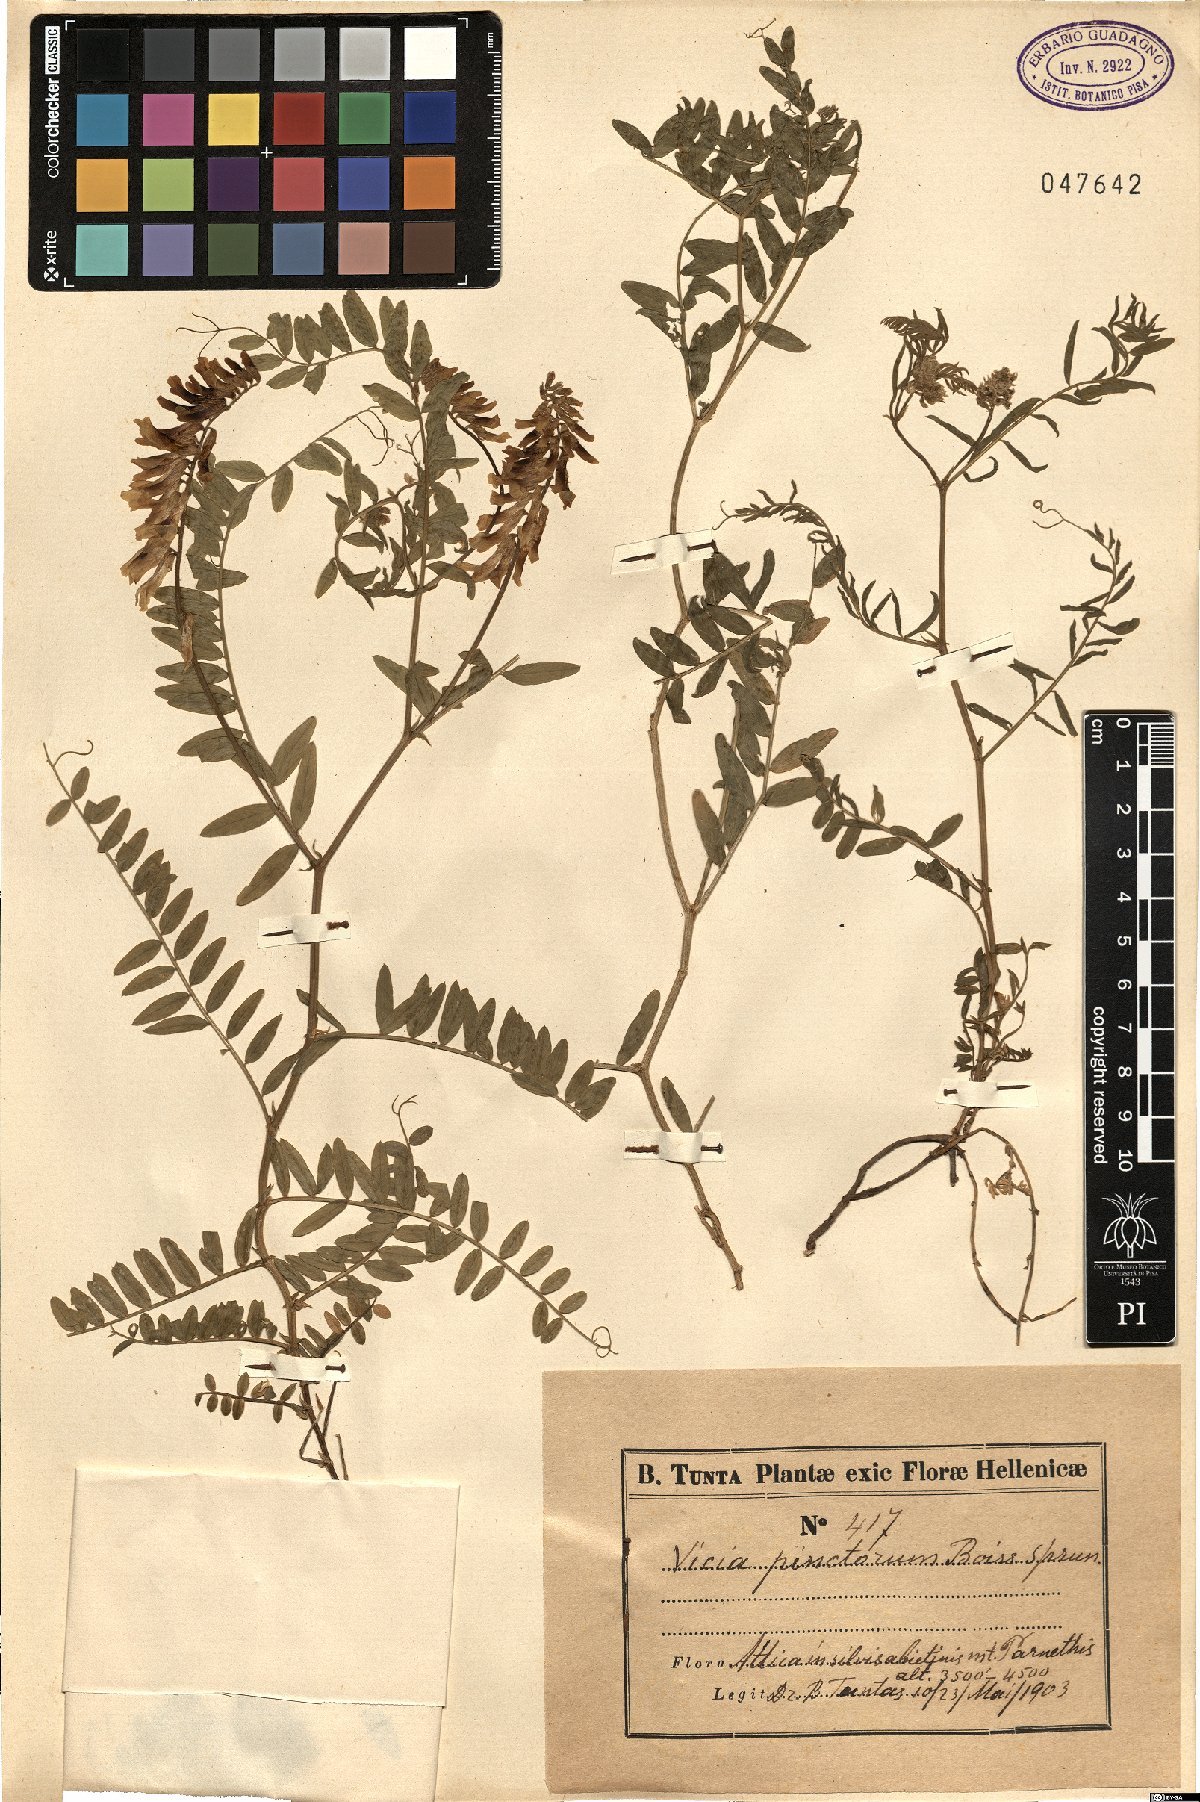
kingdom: Plantae
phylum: Tracheophyta
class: Magnoliopsida
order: Fabales
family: Fabaceae
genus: Vicia
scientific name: Vicia pinetorum
